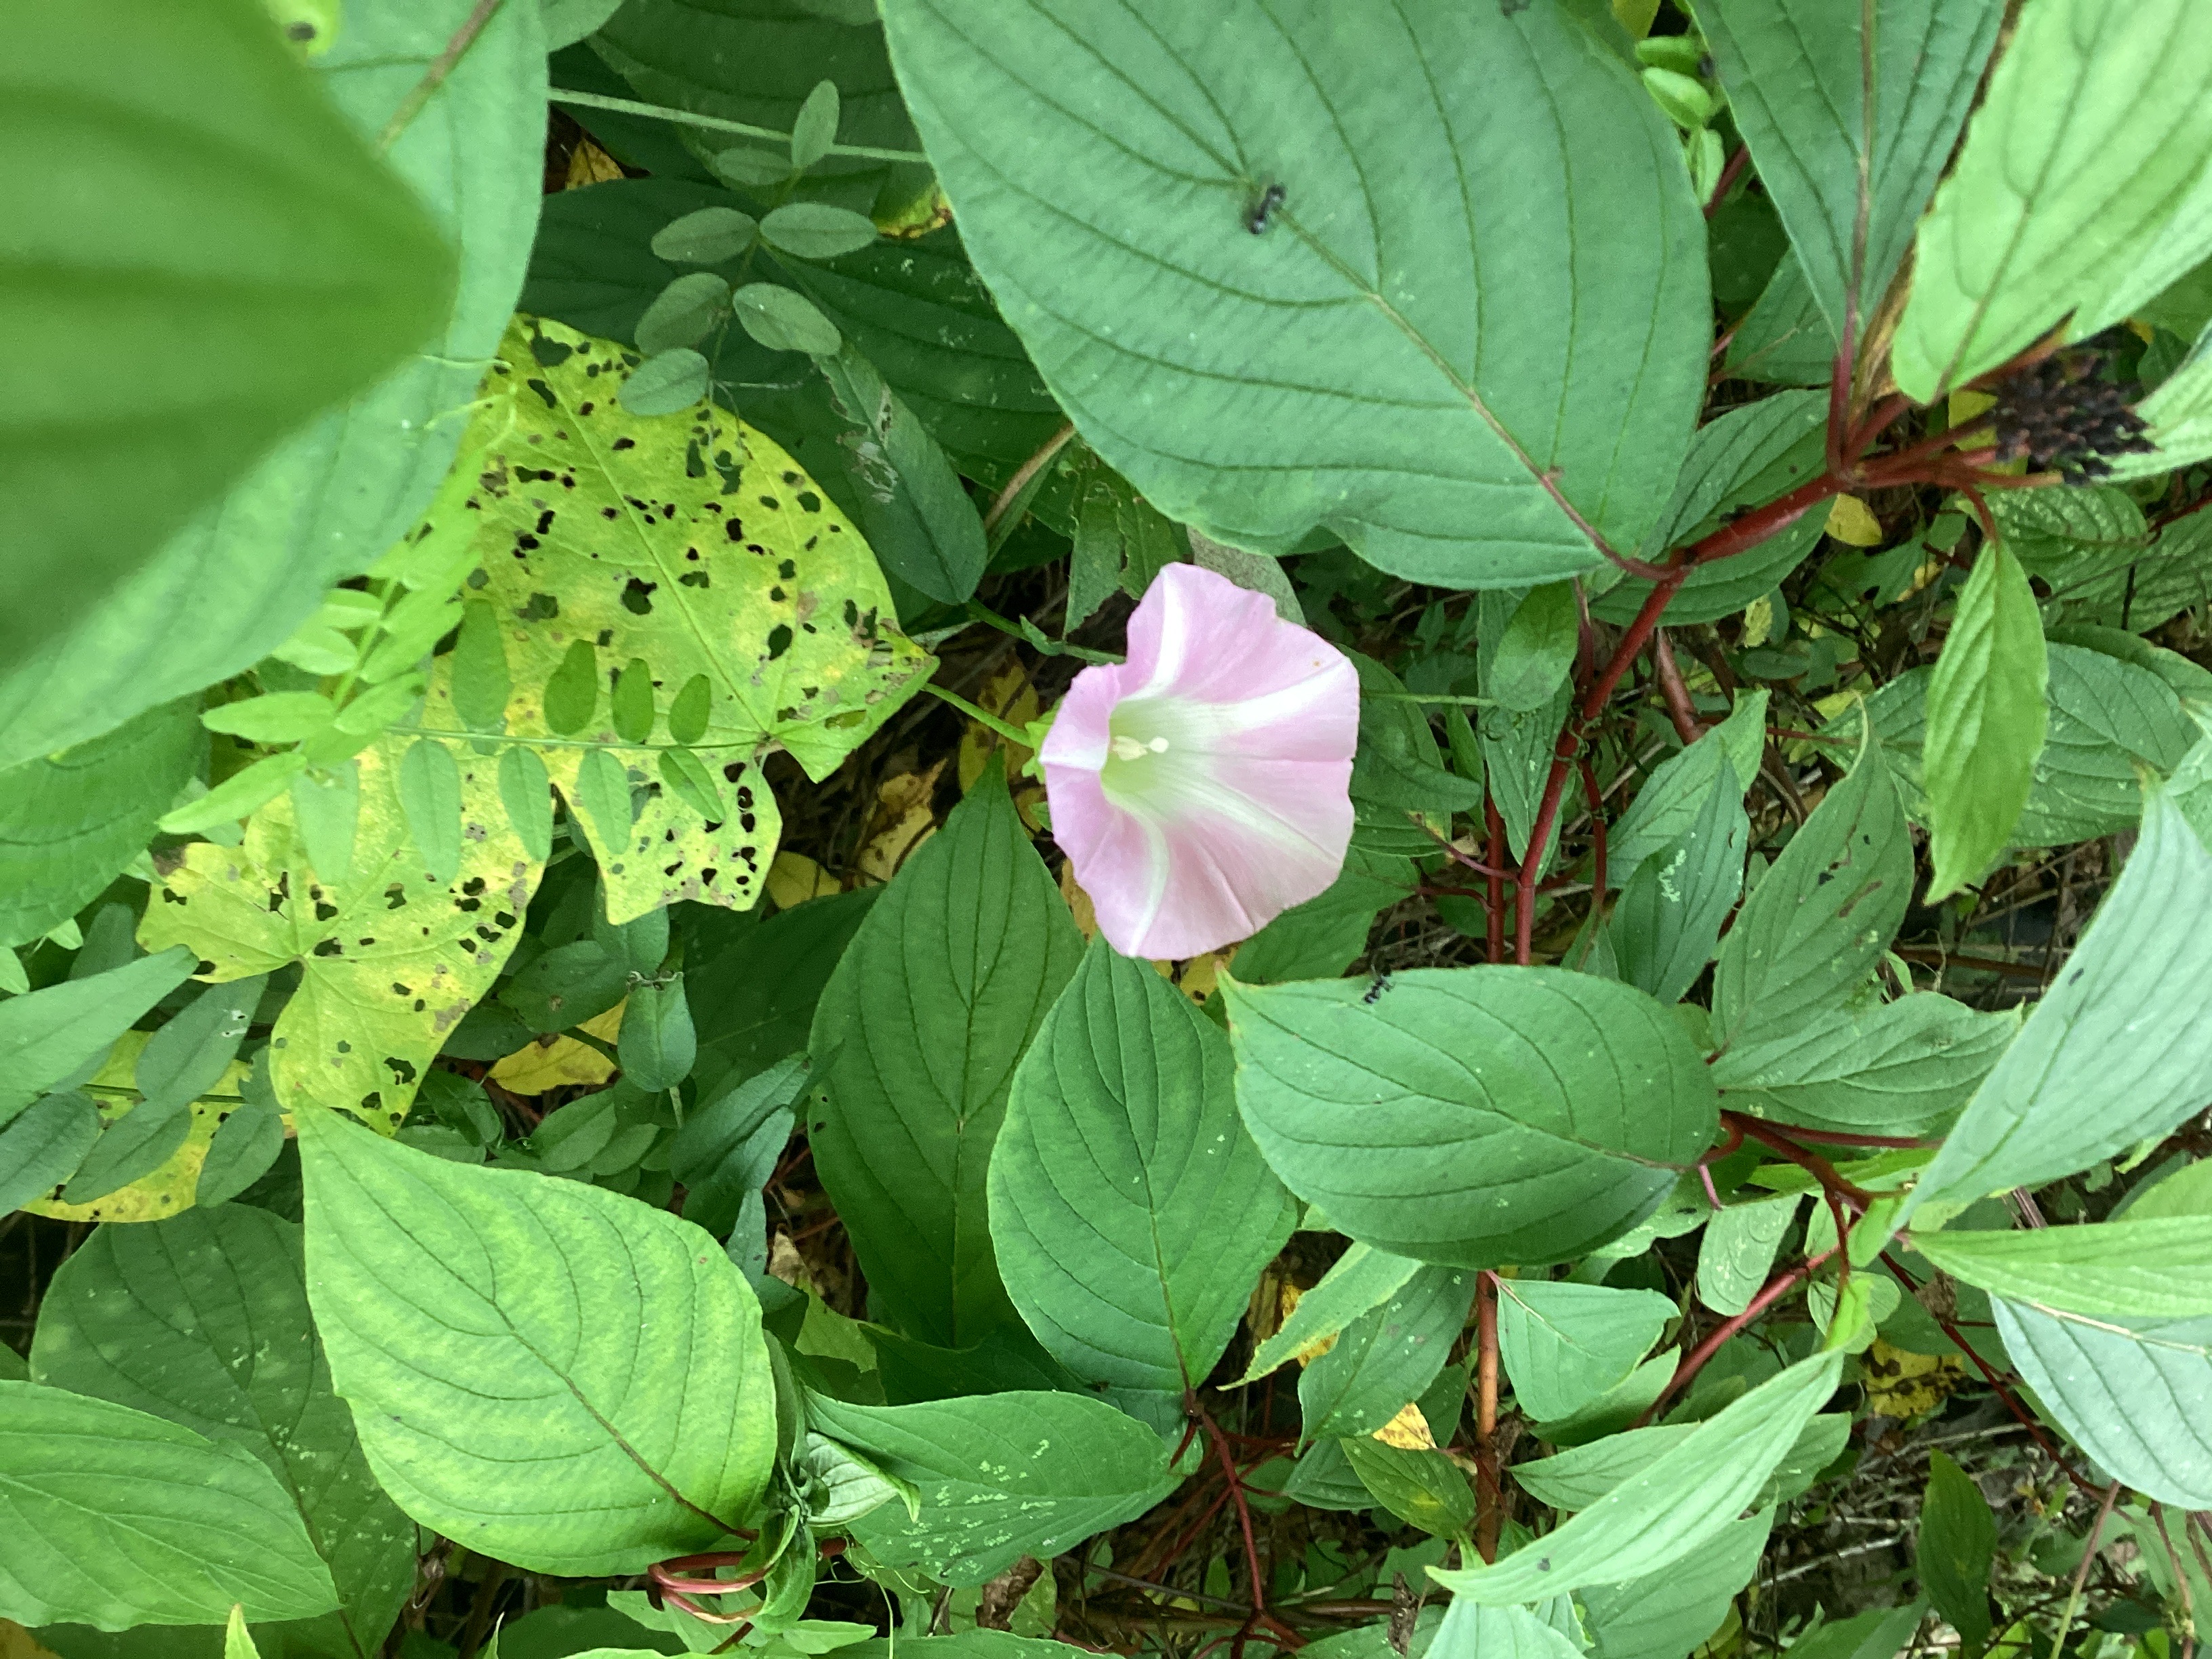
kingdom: Plantae
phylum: Tracheophyta
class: Magnoliopsida
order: Solanales
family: Convolvulaceae
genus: Calystegia
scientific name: Calystegia pulchra
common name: rosenvindel
